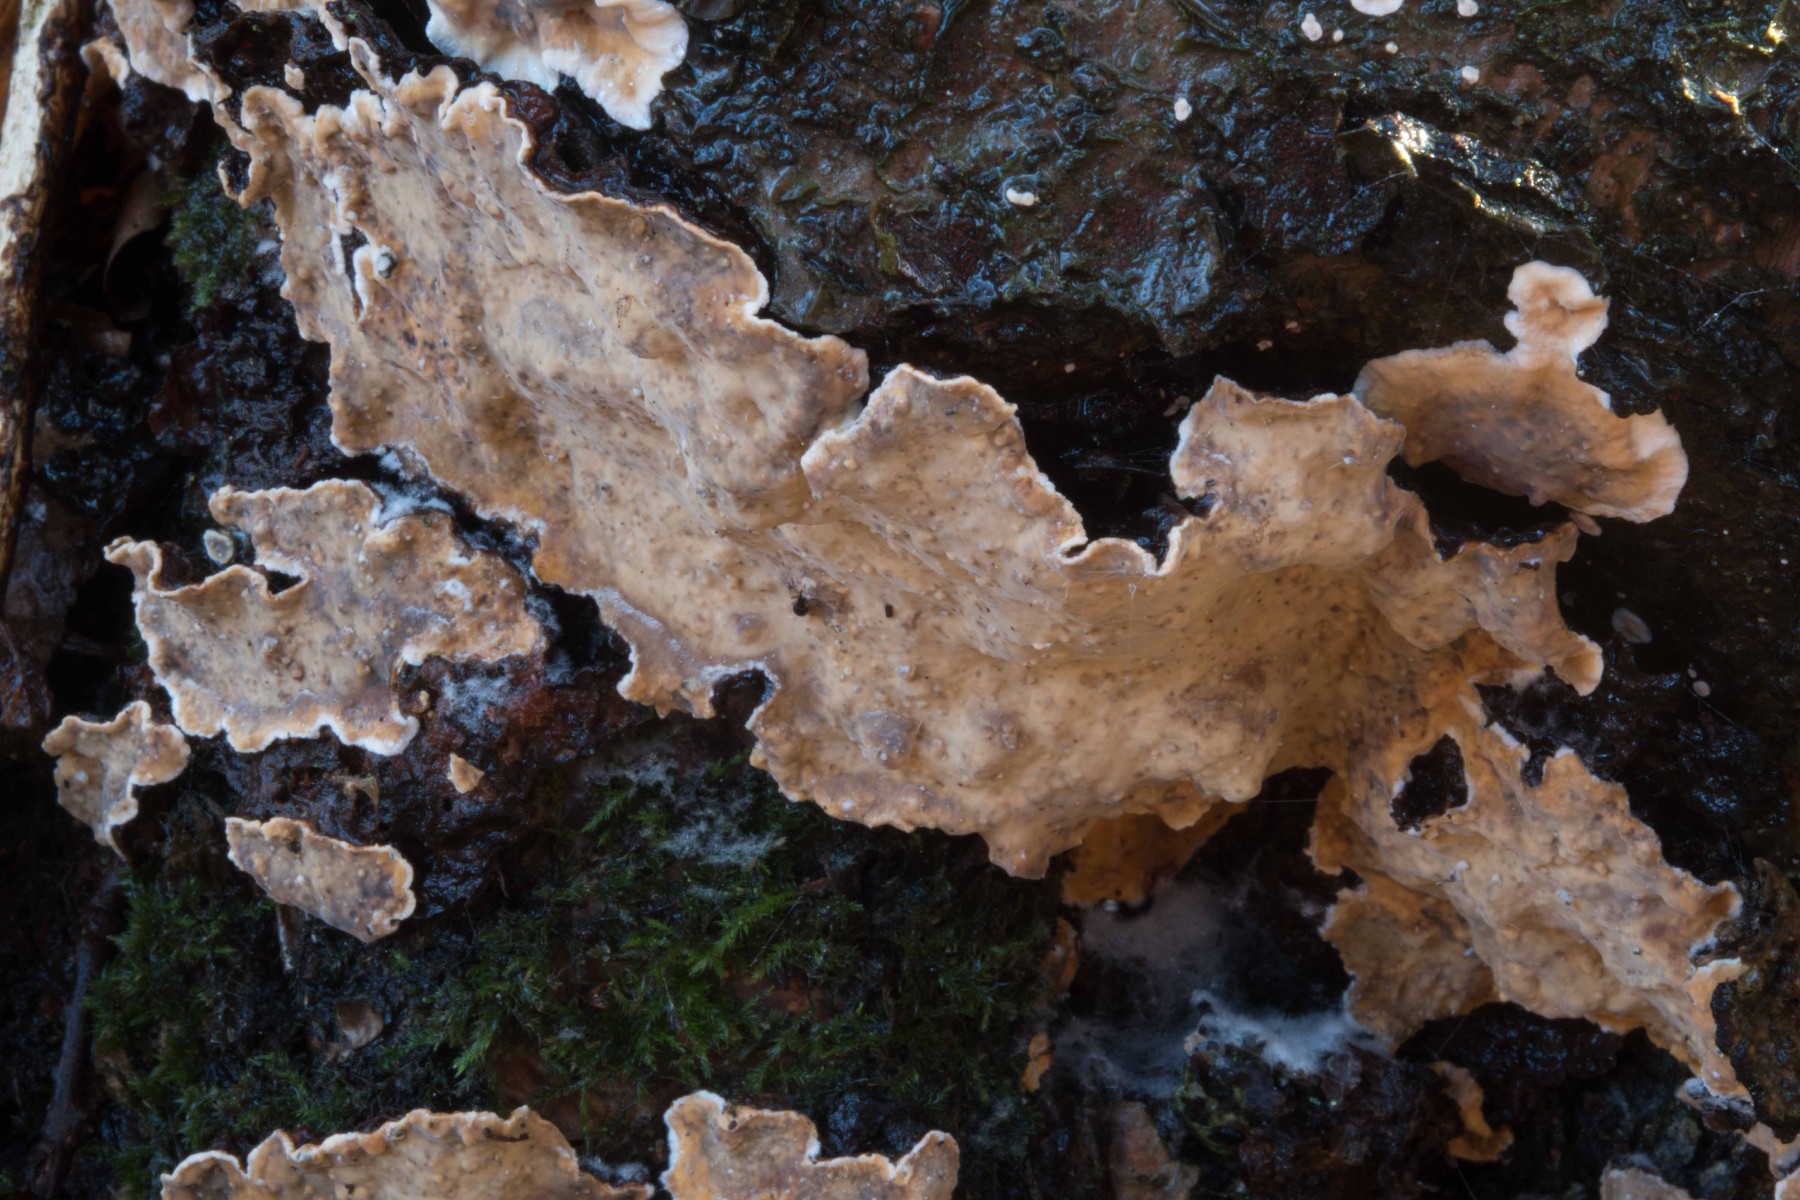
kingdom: Fungi
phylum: Basidiomycota
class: Agaricomycetes
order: Russulales
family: Stereaceae
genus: Stereum
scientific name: Stereum rugosum
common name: rynket lædersvamp
